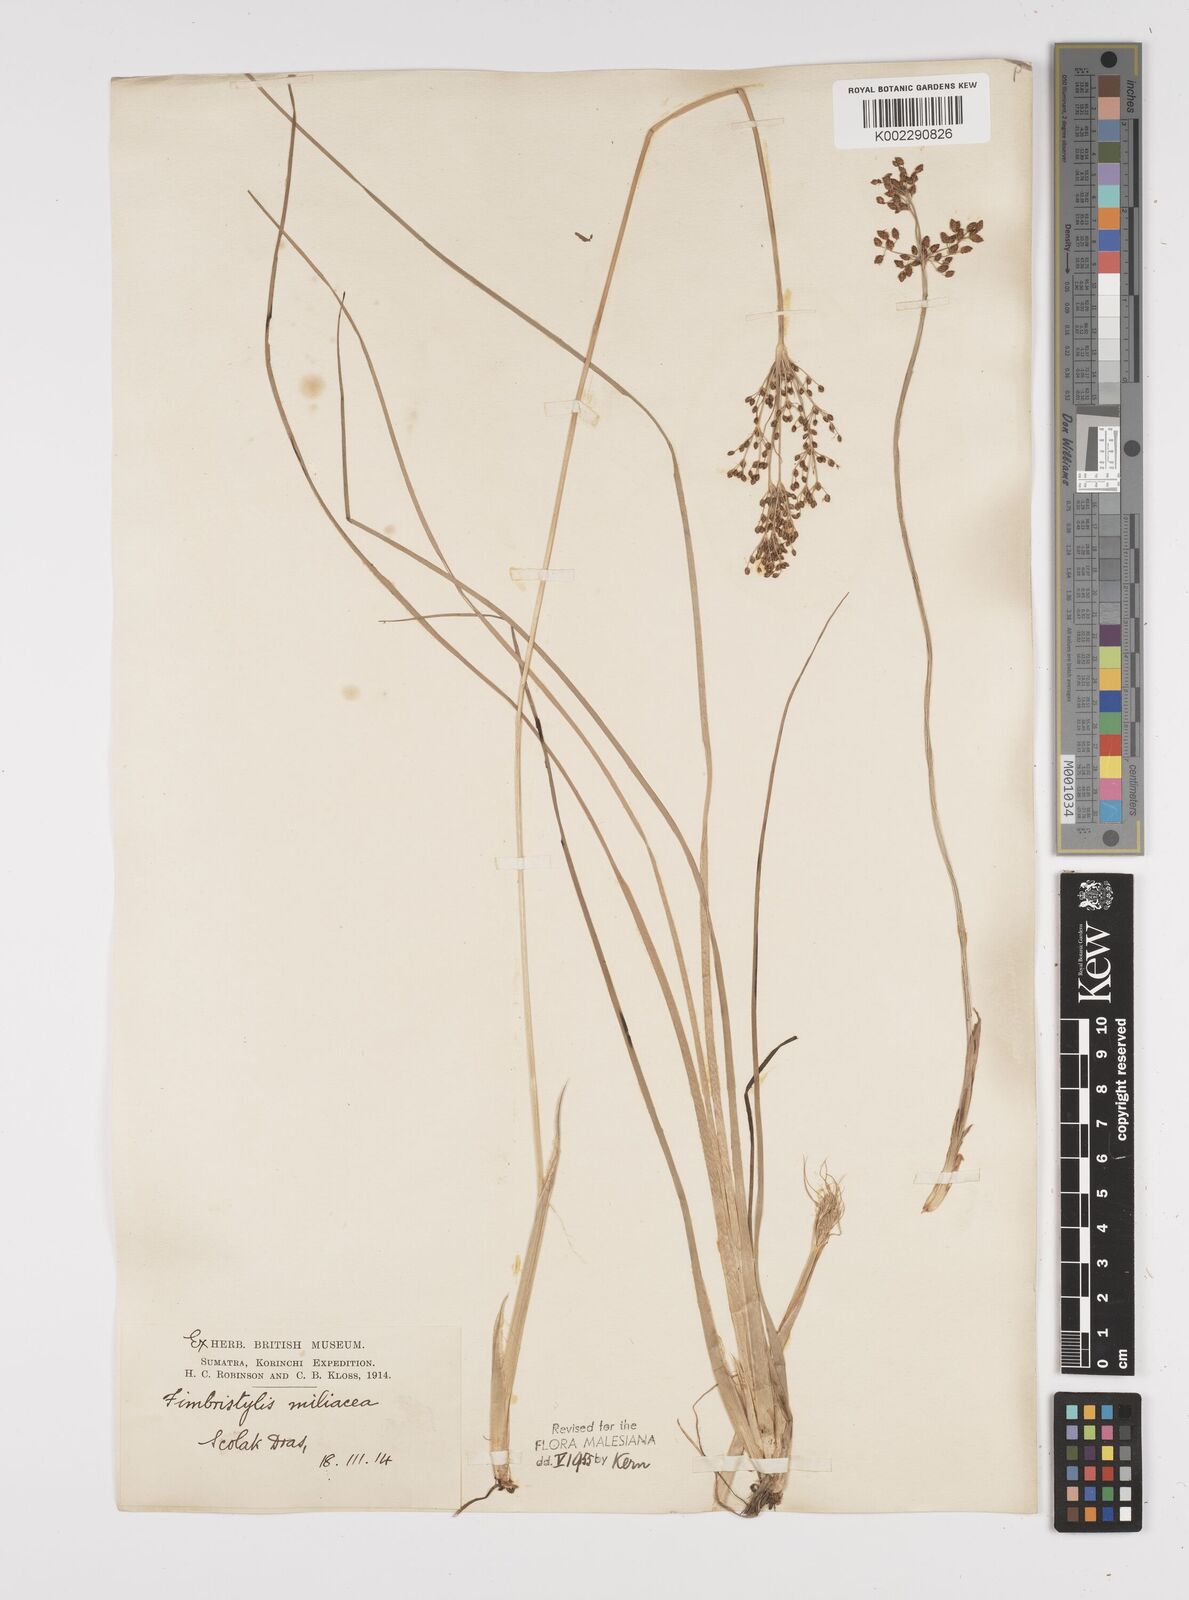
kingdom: Plantae
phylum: Tracheophyta
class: Liliopsida
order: Poales
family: Cyperaceae
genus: Fimbristylis
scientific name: Fimbristylis littoralis
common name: Fimbry
